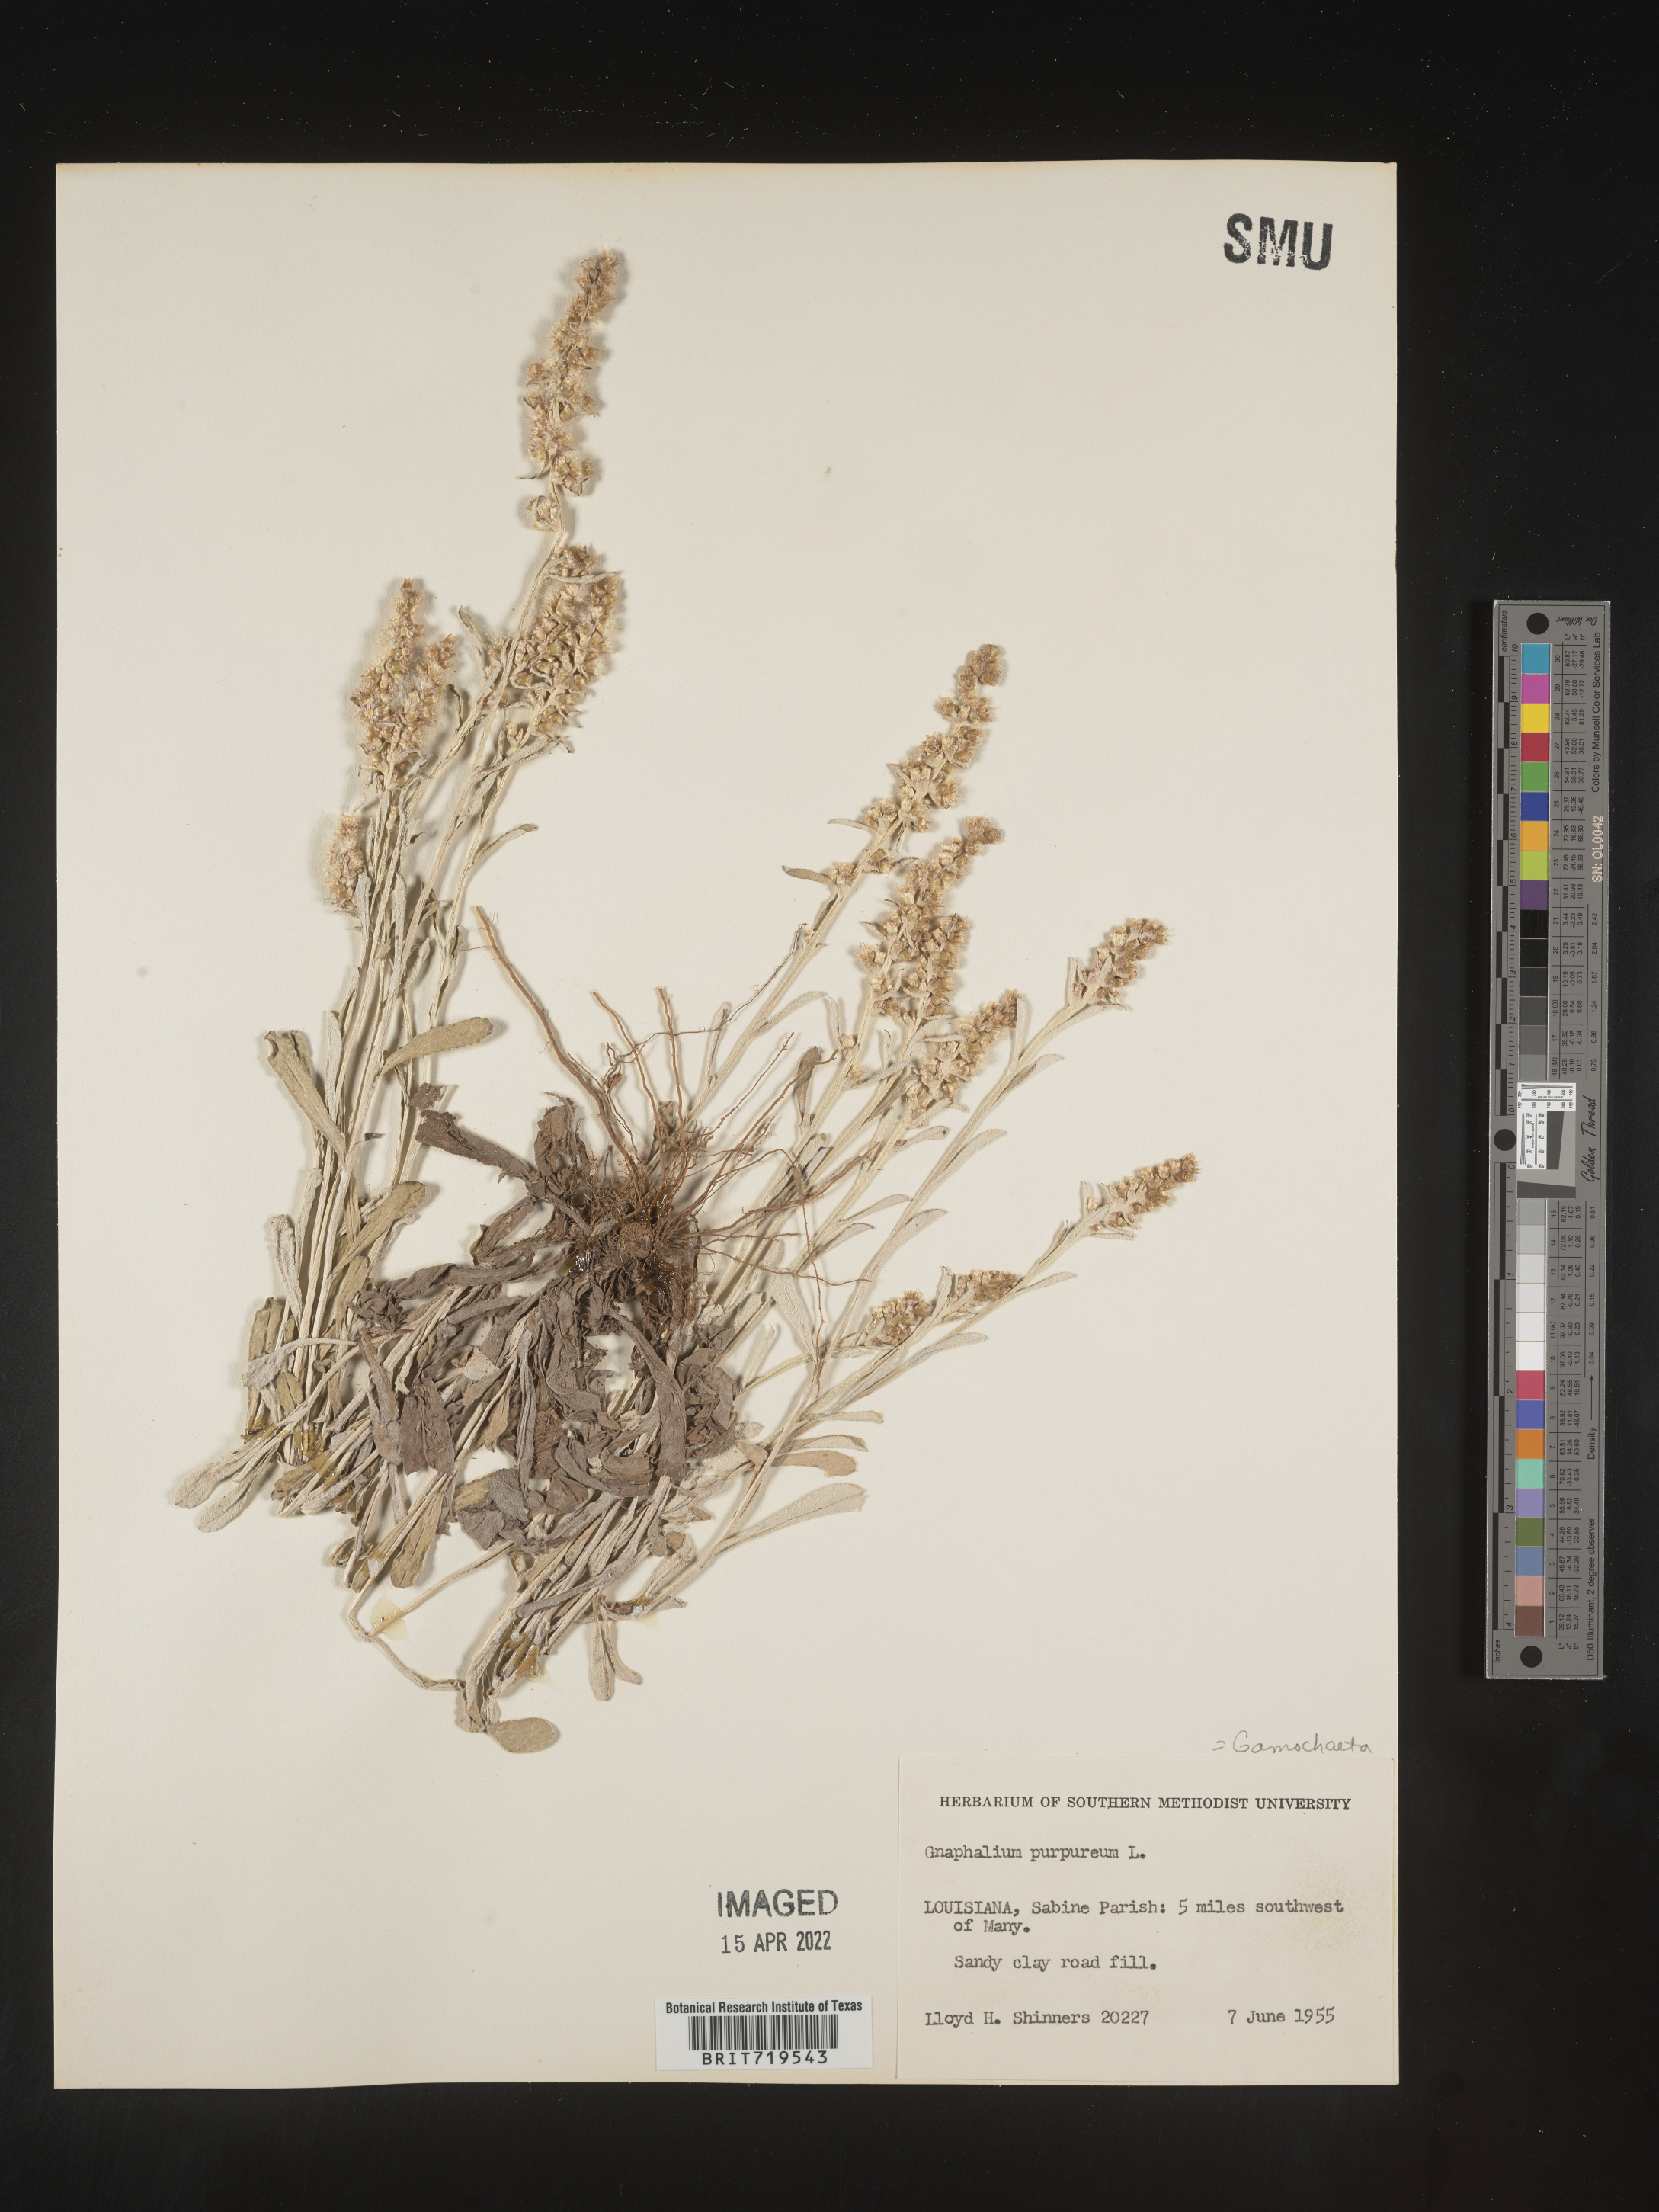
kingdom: Plantae
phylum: Tracheophyta
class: Magnoliopsida
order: Asterales
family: Asteraceae
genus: Gamochaeta
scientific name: Gamochaeta argyrinea
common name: Silvery cudweed
